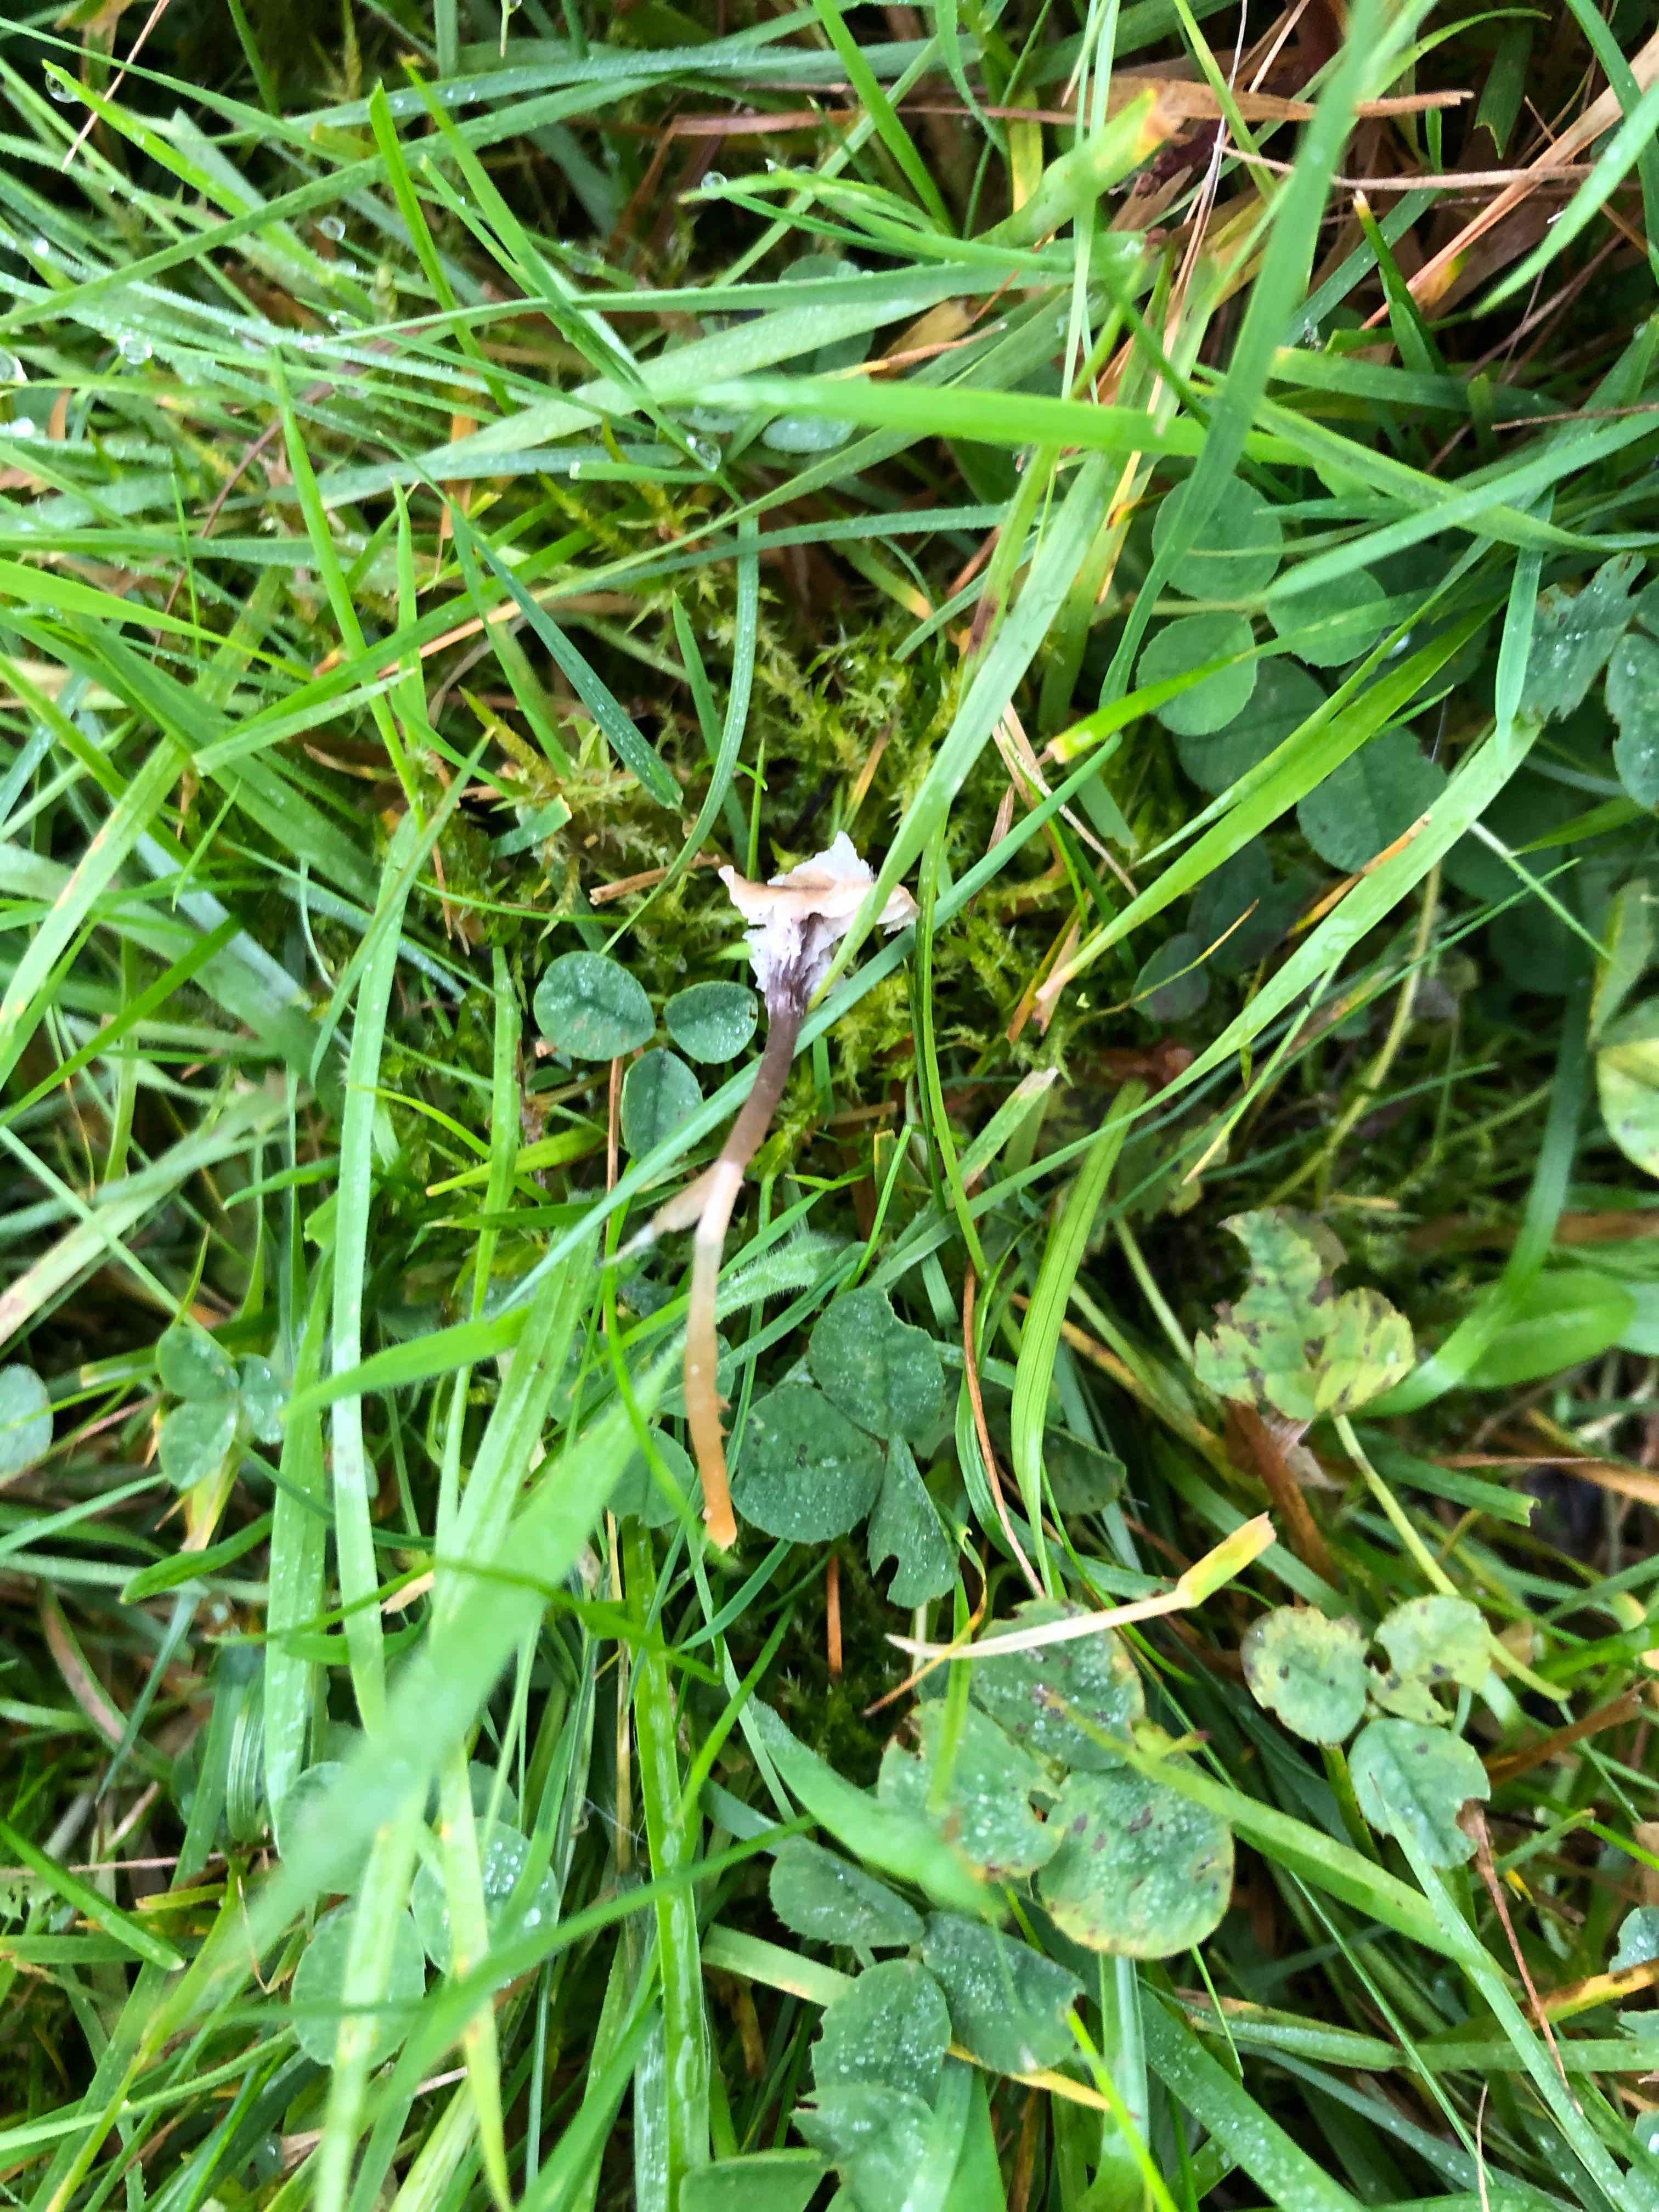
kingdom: Fungi
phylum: Basidiomycota
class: Agaricomycetes
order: Hymenochaetales
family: Rickenellaceae
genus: Rickenella
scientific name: Rickenella swartzii
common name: finstokket mosnavlehat
